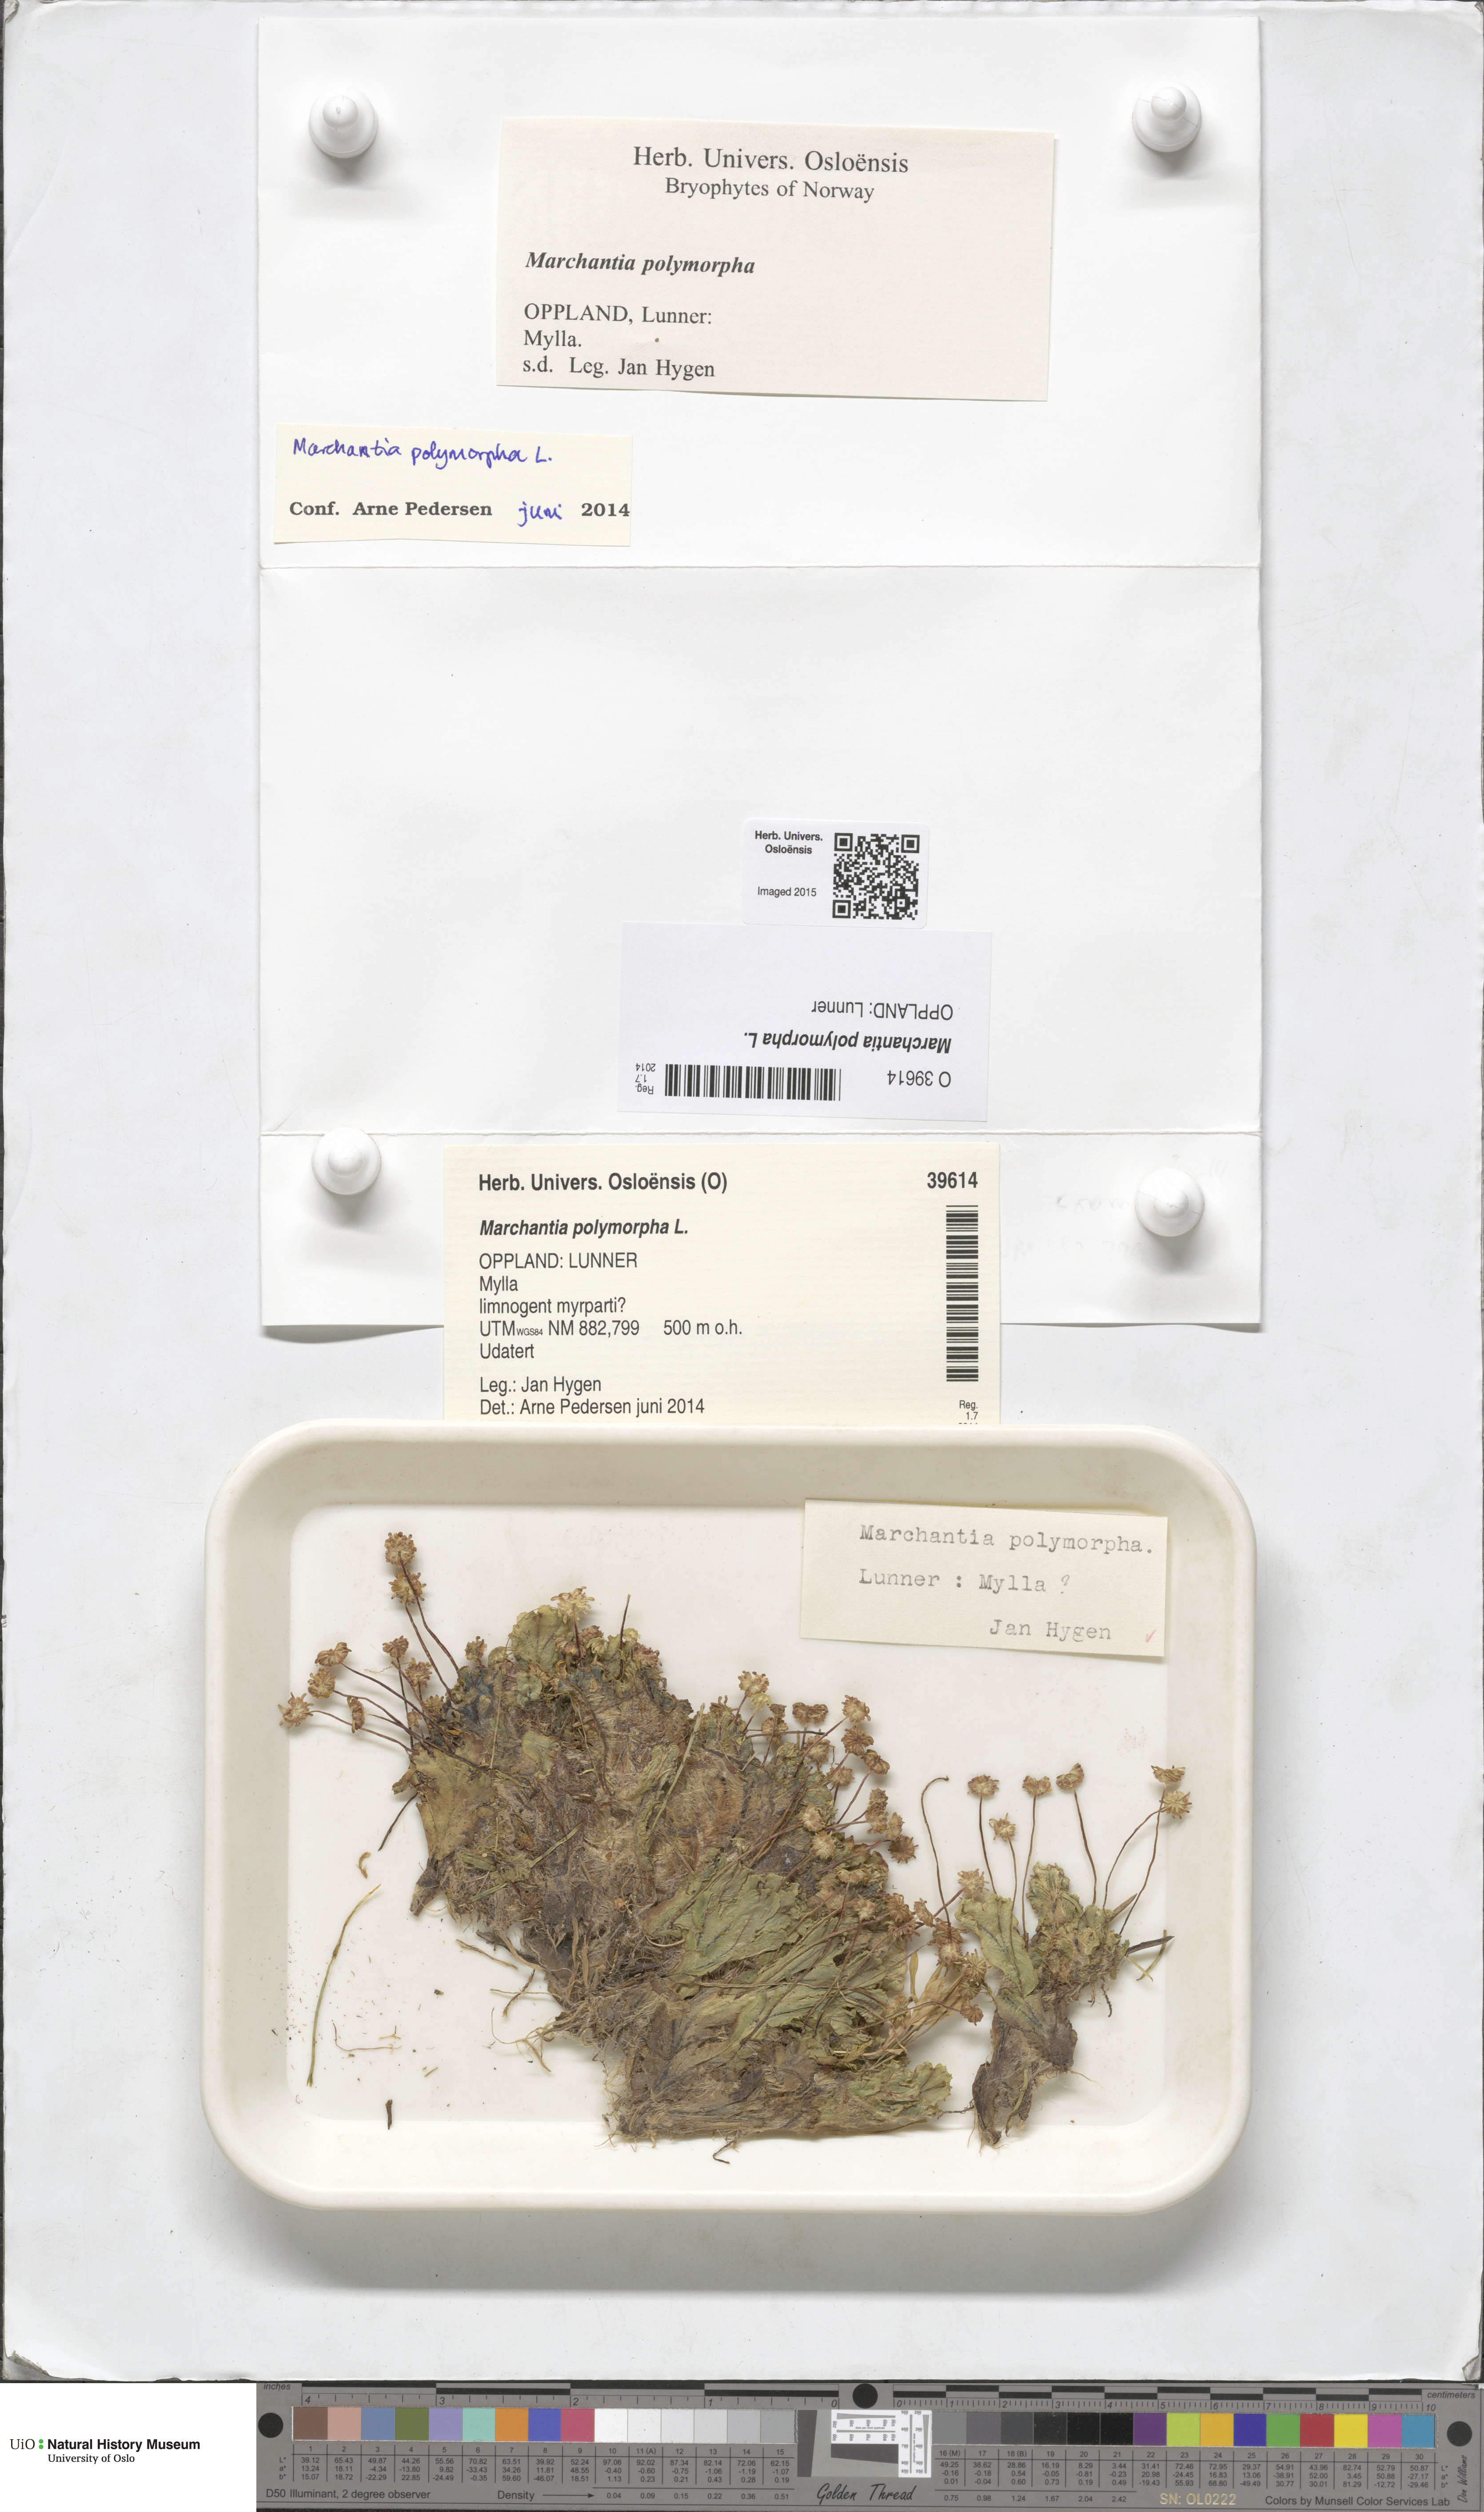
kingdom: Plantae
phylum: Marchantiophyta
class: Marchantiopsida
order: Marchantiales
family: Marchantiaceae
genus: Marchantia
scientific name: Marchantia polymorpha
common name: Common liverwort
